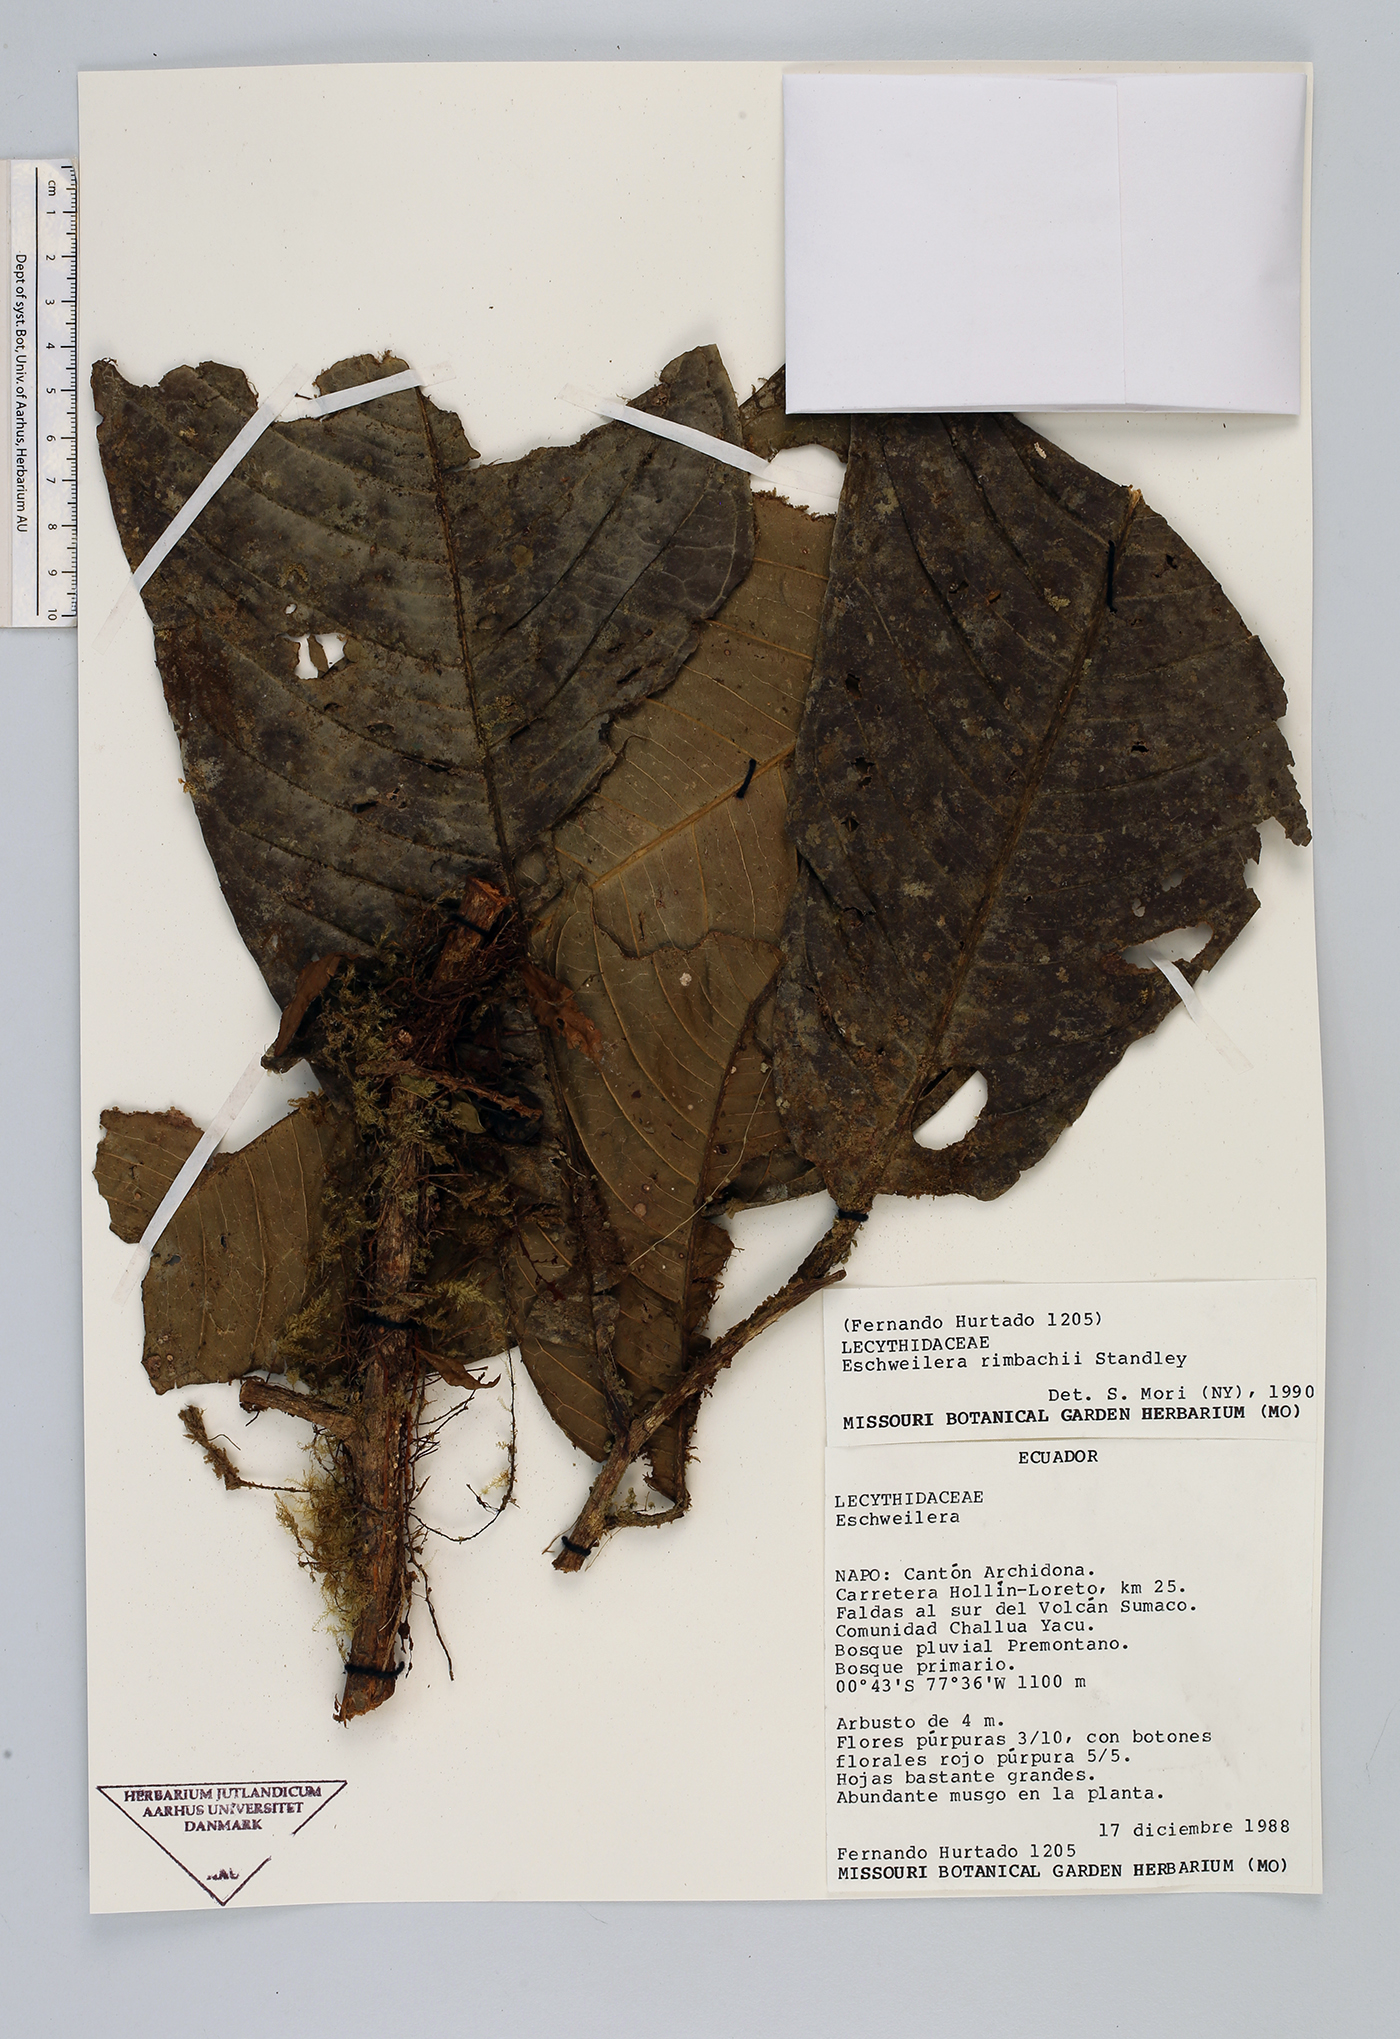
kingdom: Plantae
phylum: Tracheophyta
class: Magnoliopsida
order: Ericales
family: Lecythidaceae
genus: Eschweilera
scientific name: Eschweilera rimbachii
